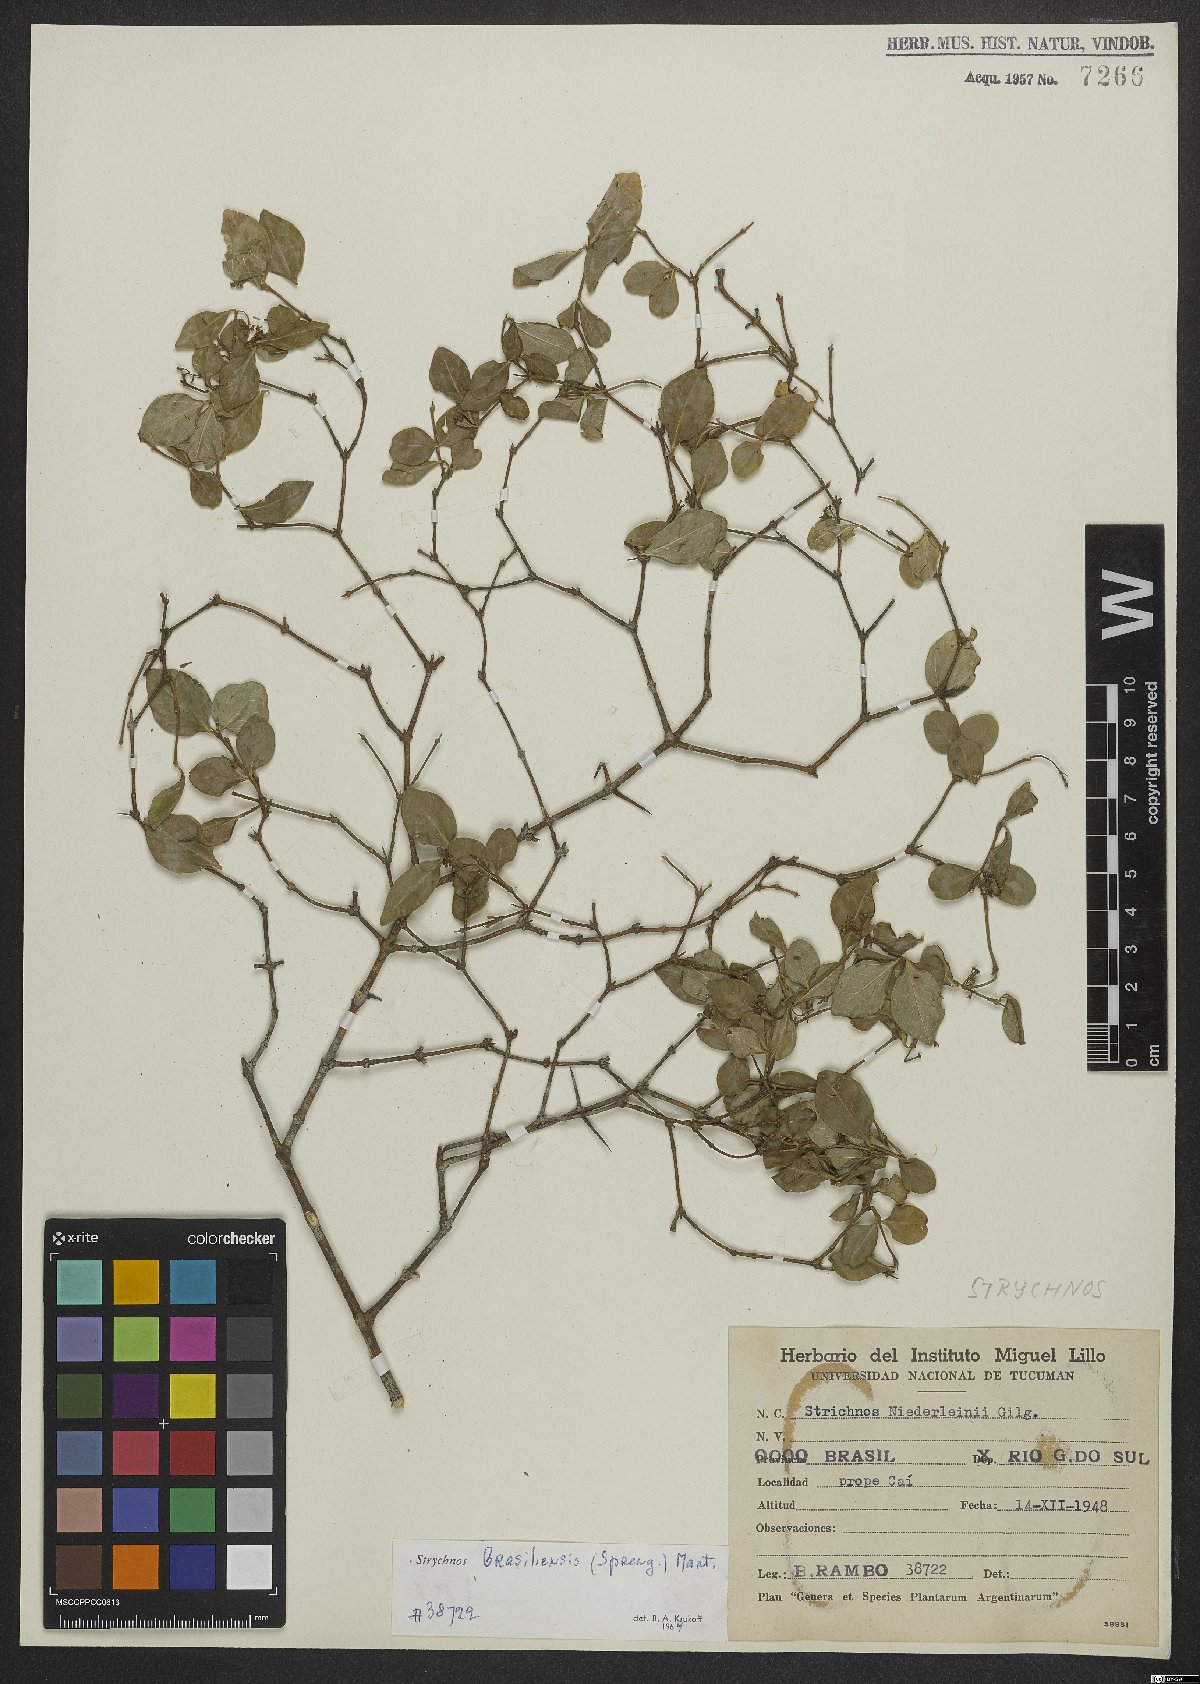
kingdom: Plantae
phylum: Tracheophyta
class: Magnoliopsida
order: Gentianales
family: Loganiaceae
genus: Strychnos
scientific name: Strychnos brasiliensis
